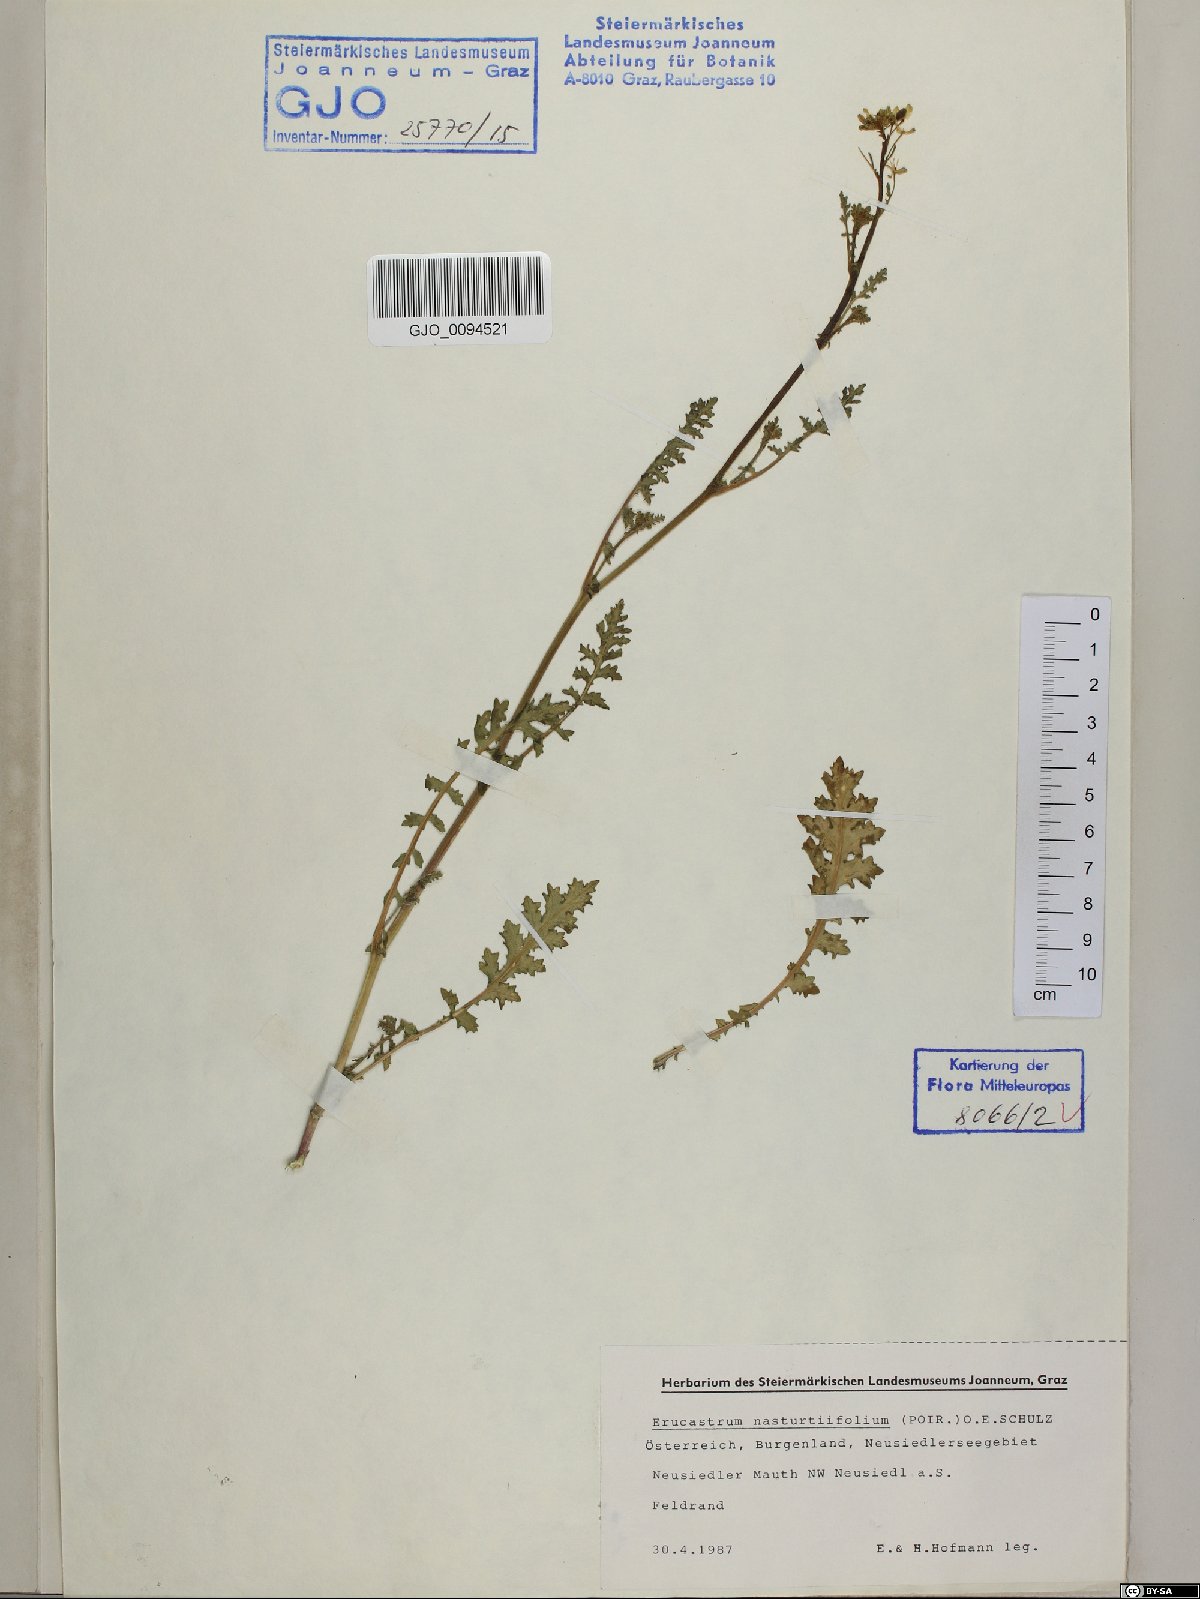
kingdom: Plantae
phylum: Tracheophyta
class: Magnoliopsida
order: Brassicales
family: Brassicaceae
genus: Erucastrum
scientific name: Erucastrum nasturtiifolium
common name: Watercress-leaf rocket
